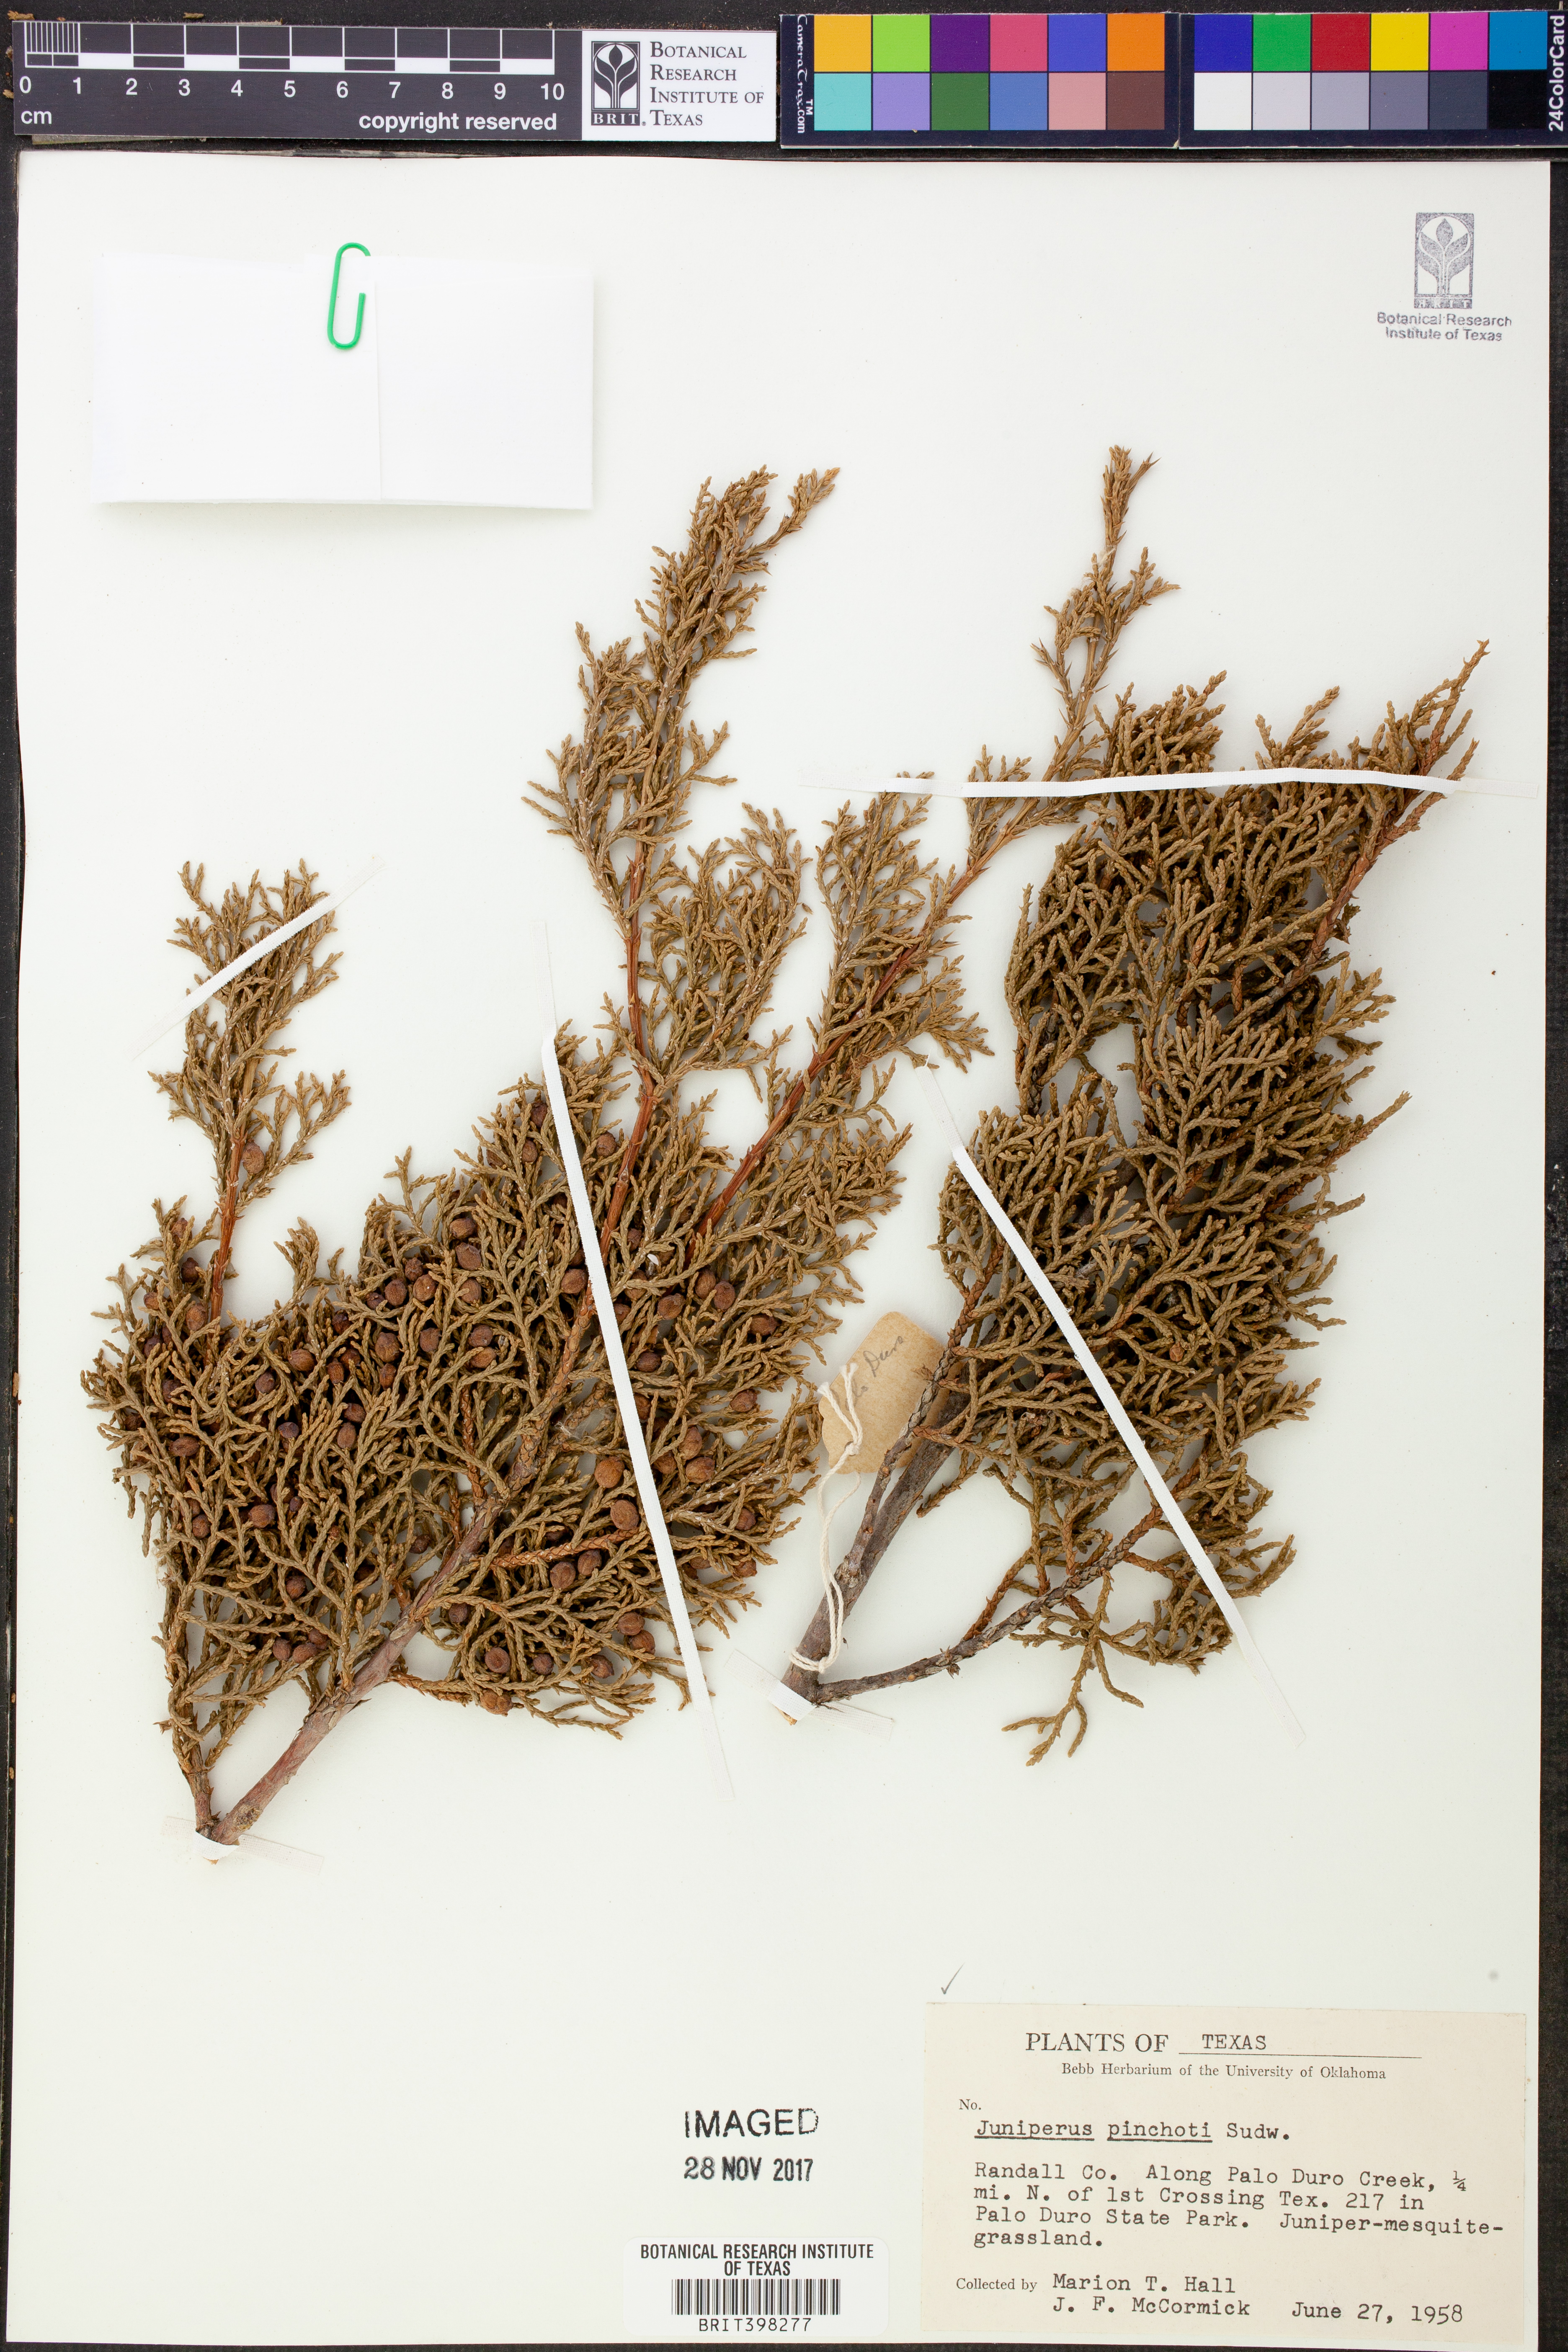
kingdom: Plantae
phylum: Tracheophyta
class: Pinopsida
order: Pinales
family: Cupressaceae
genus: Juniperus
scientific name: Juniperus pinchotii
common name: Pinchot juniper
